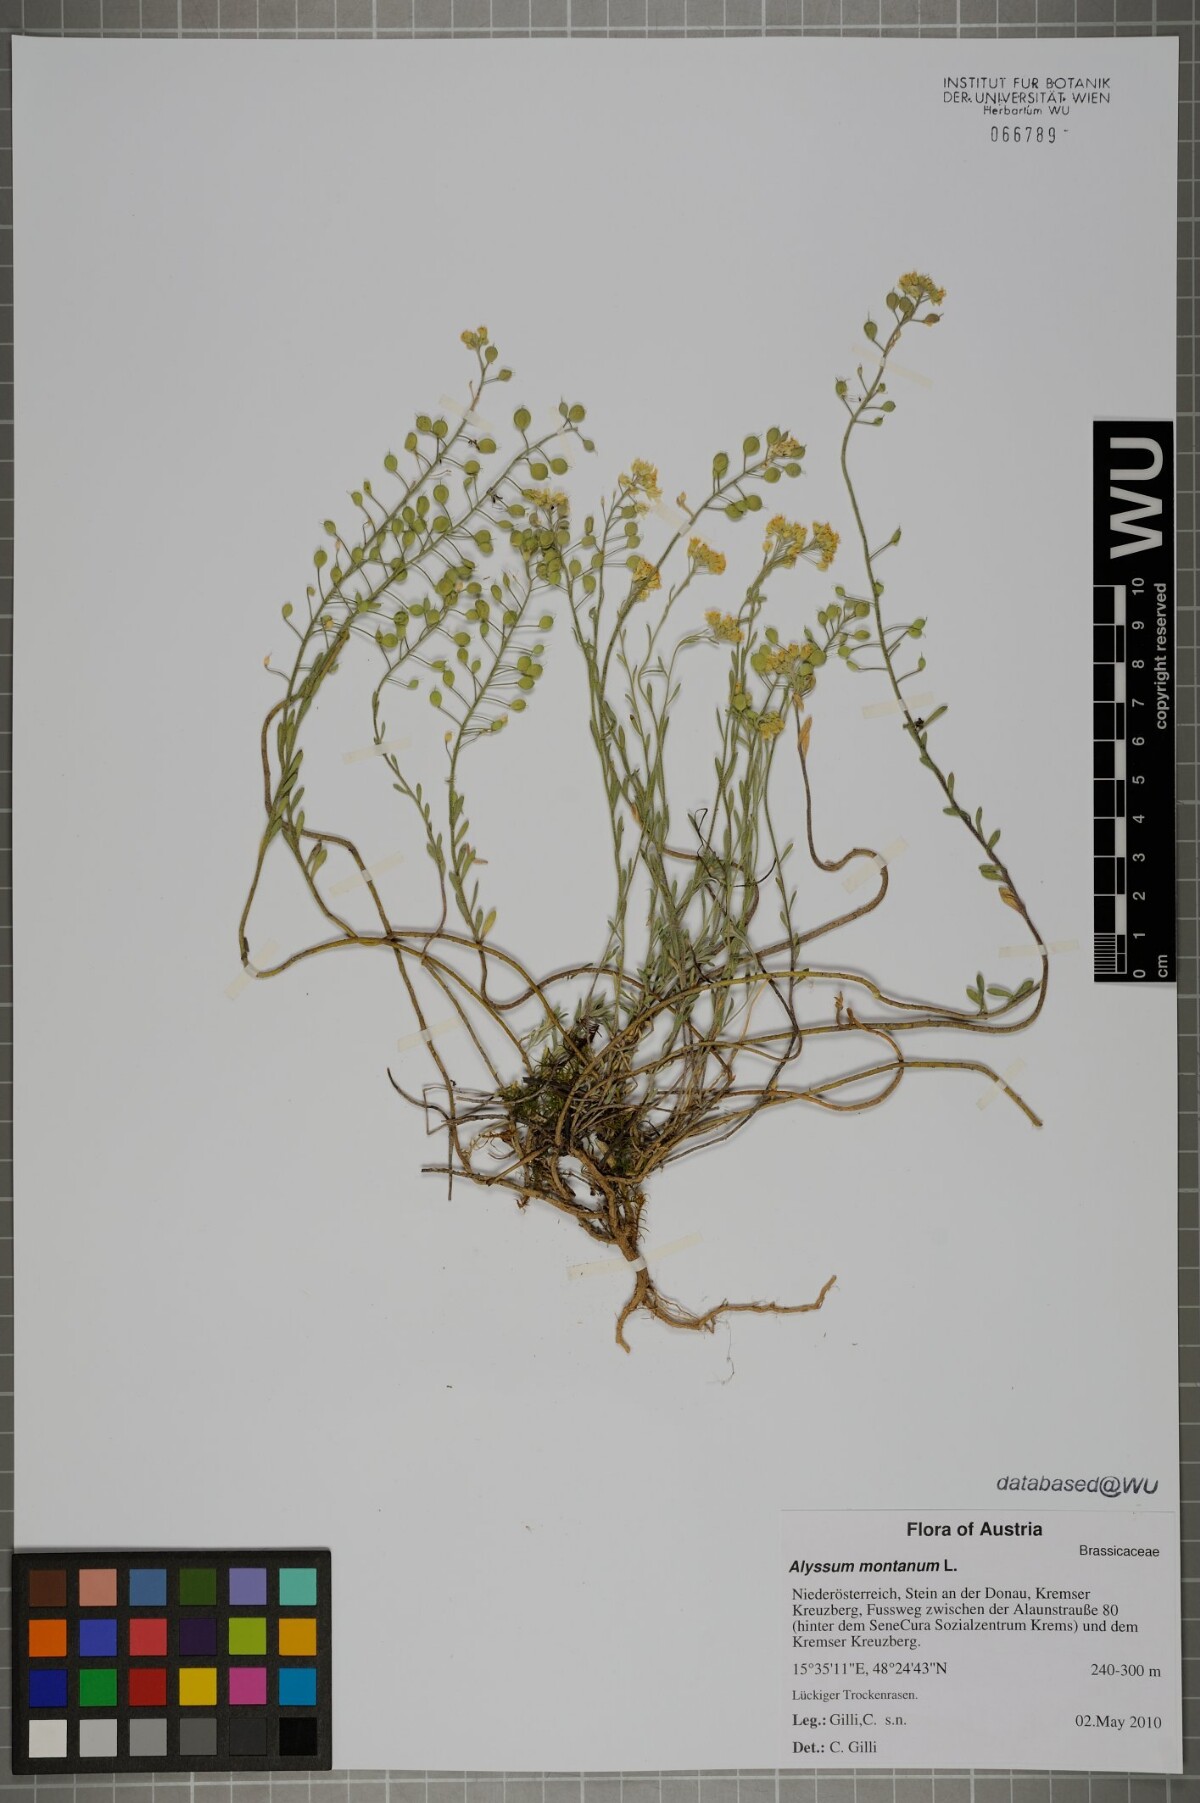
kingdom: Plantae
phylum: Tracheophyta
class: Magnoliopsida
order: Brassicales
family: Brassicaceae
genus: Alyssum
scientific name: Alyssum montanum
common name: Mountain alison
